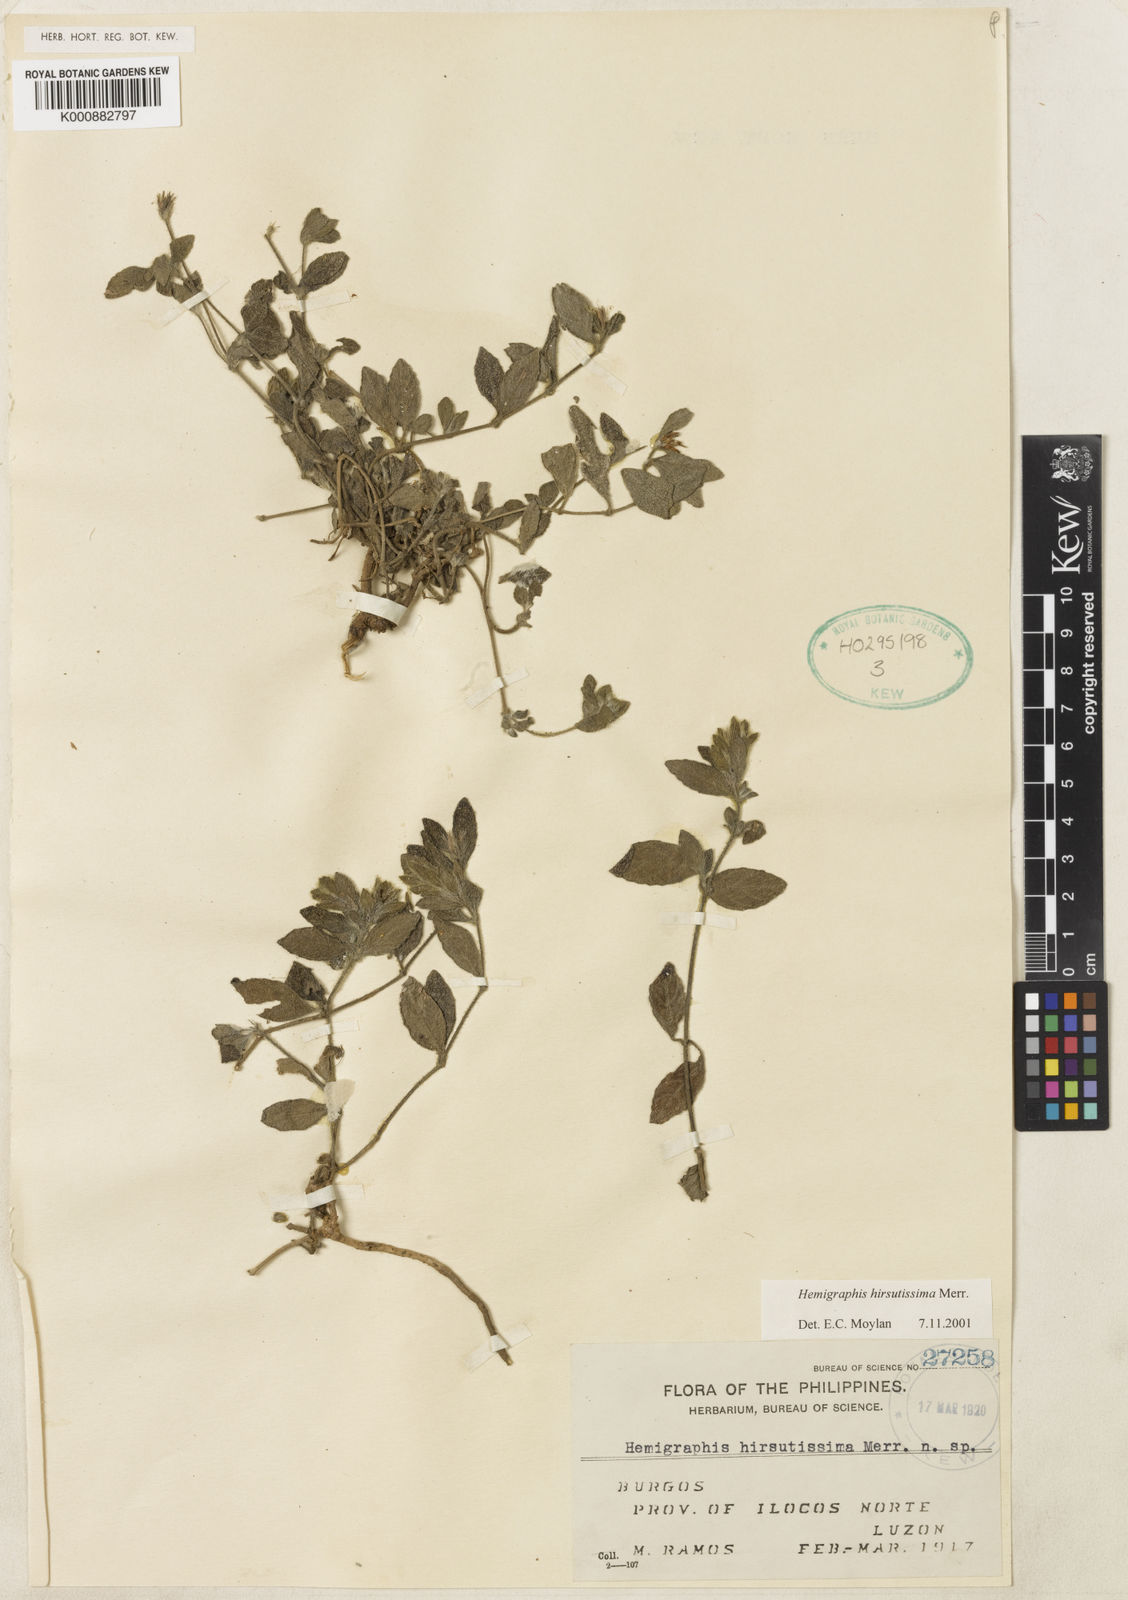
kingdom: Plantae
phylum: Tracheophyta
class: Magnoliopsida
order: Lamiales
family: Acanthaceae
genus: Strobilanthes
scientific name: Strobilanthes pauciflora
